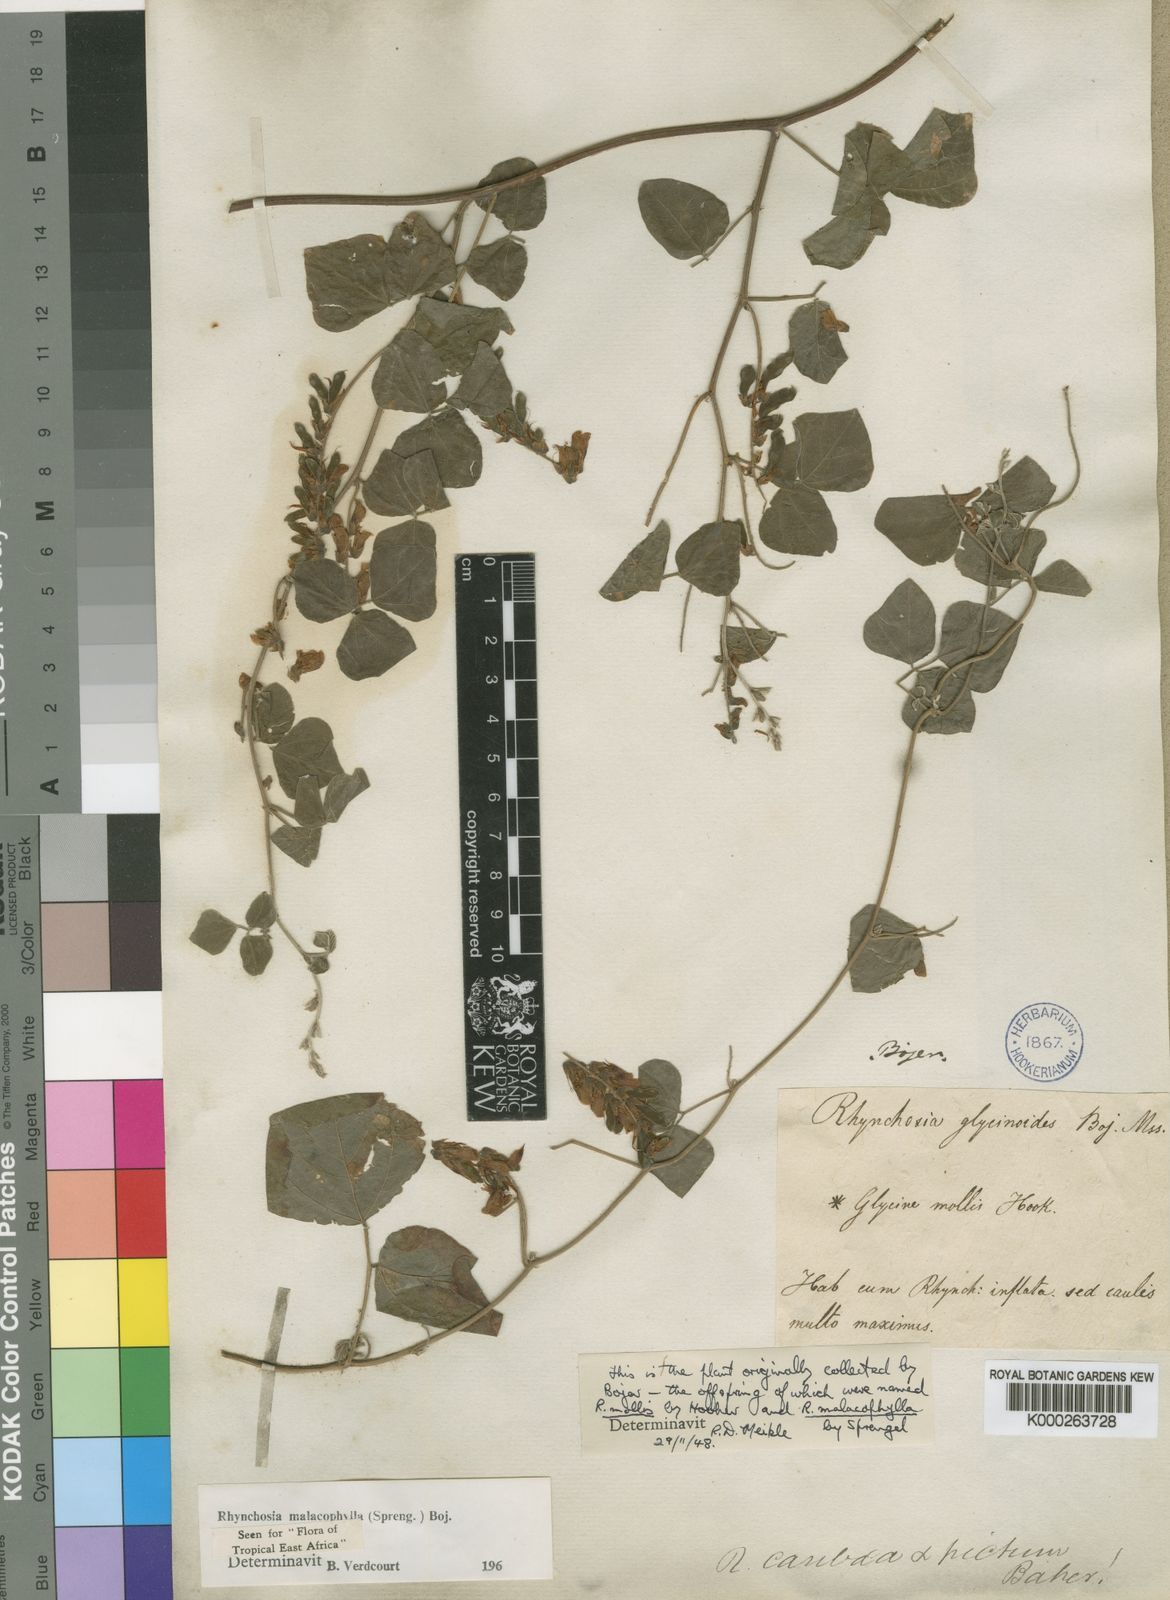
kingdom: Plantae
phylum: Tracheophyta
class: Magnoliopsida
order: Fabales
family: Fabaceae
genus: Rhynchosia
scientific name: Rhynchosia malacophylla
